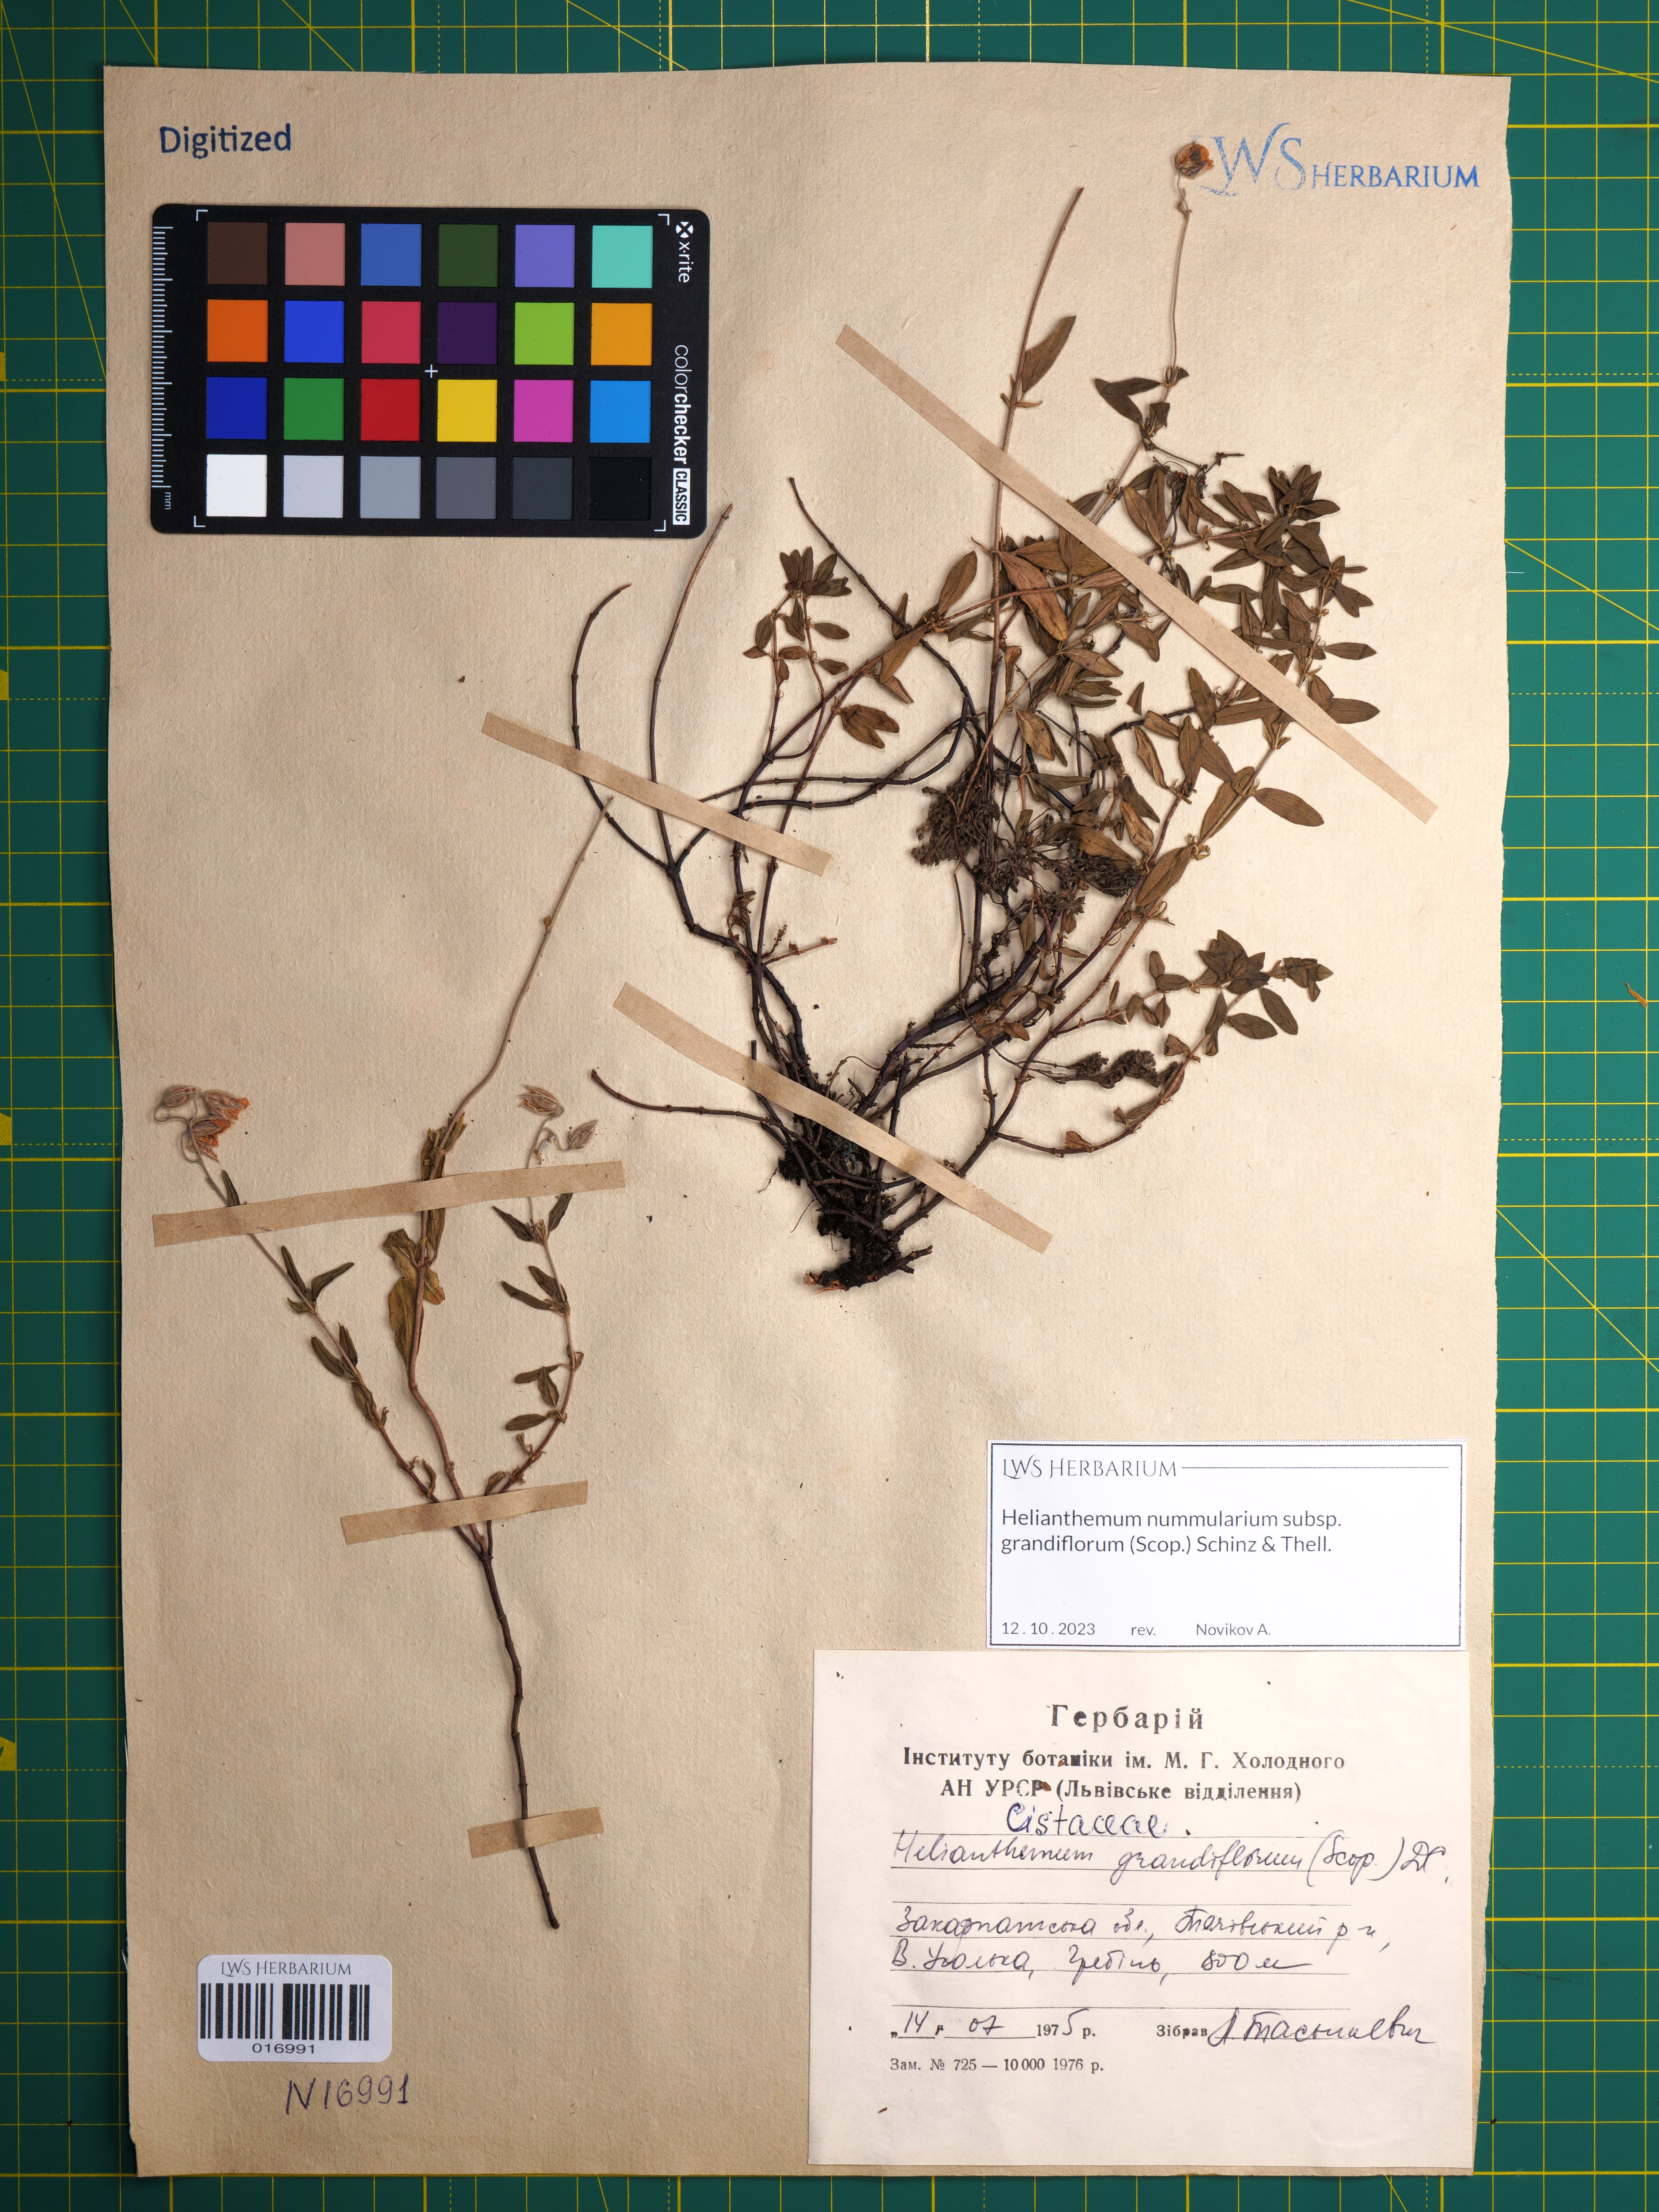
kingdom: Plantae
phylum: Tracheophyta
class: Magnoliopsida
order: Malvales
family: Cistaceae
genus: Helianthemum
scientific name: Helianthemum nummularium
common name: Common rock-rose
